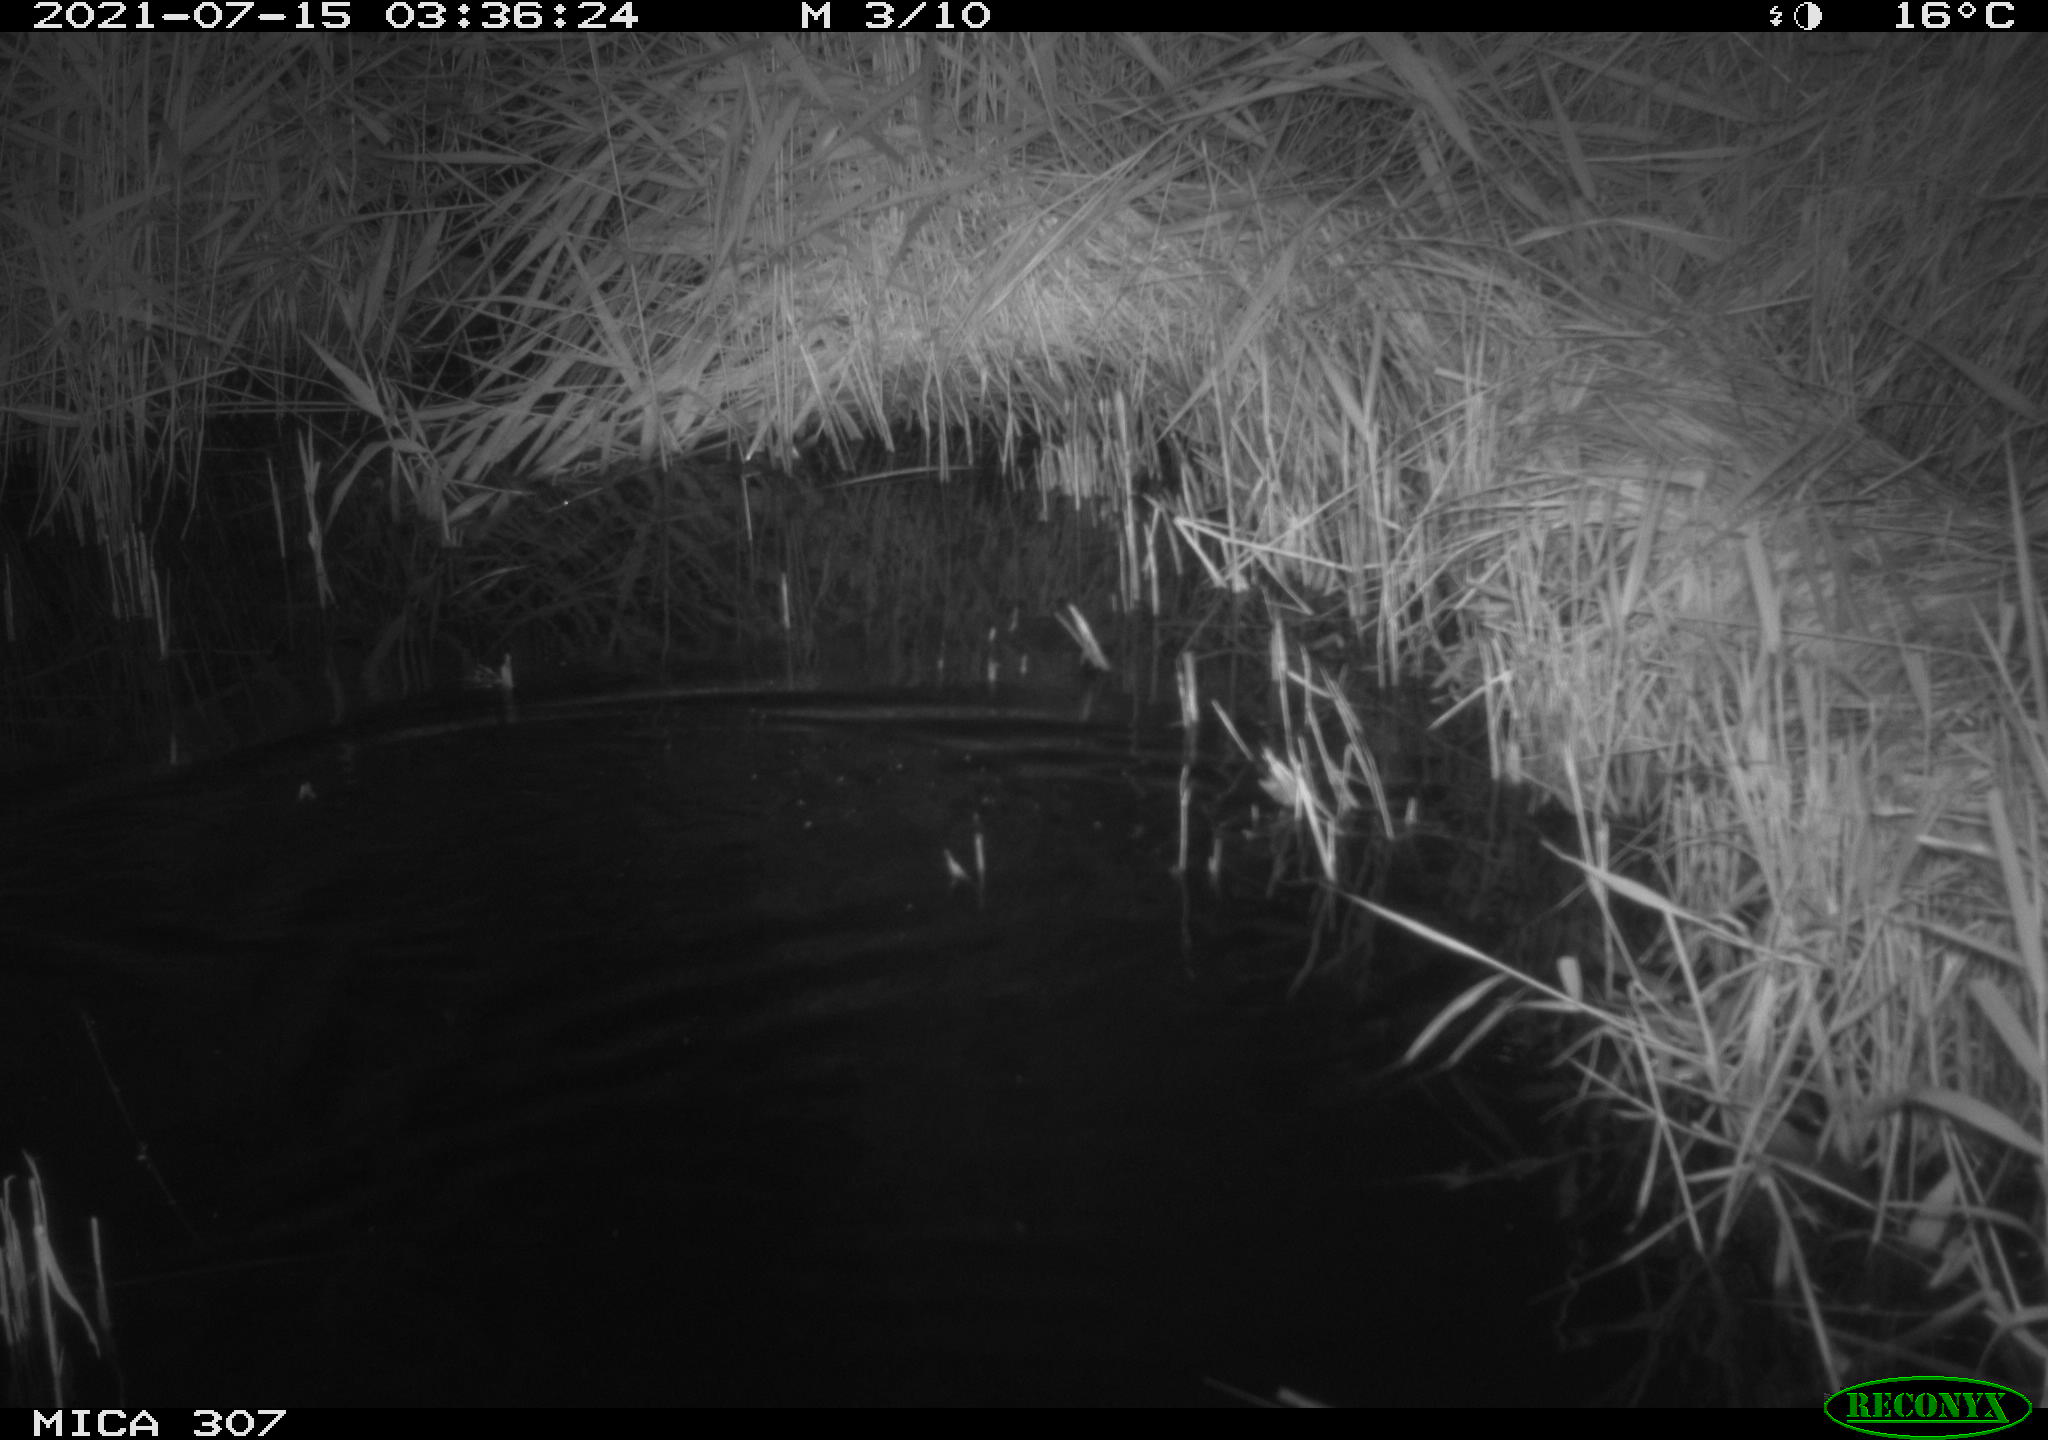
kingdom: Animalia
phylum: Chordata
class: Mammalia
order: Rodentia
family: Muridae
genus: Rattus
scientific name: Rattus norvegicus
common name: Brown rat
